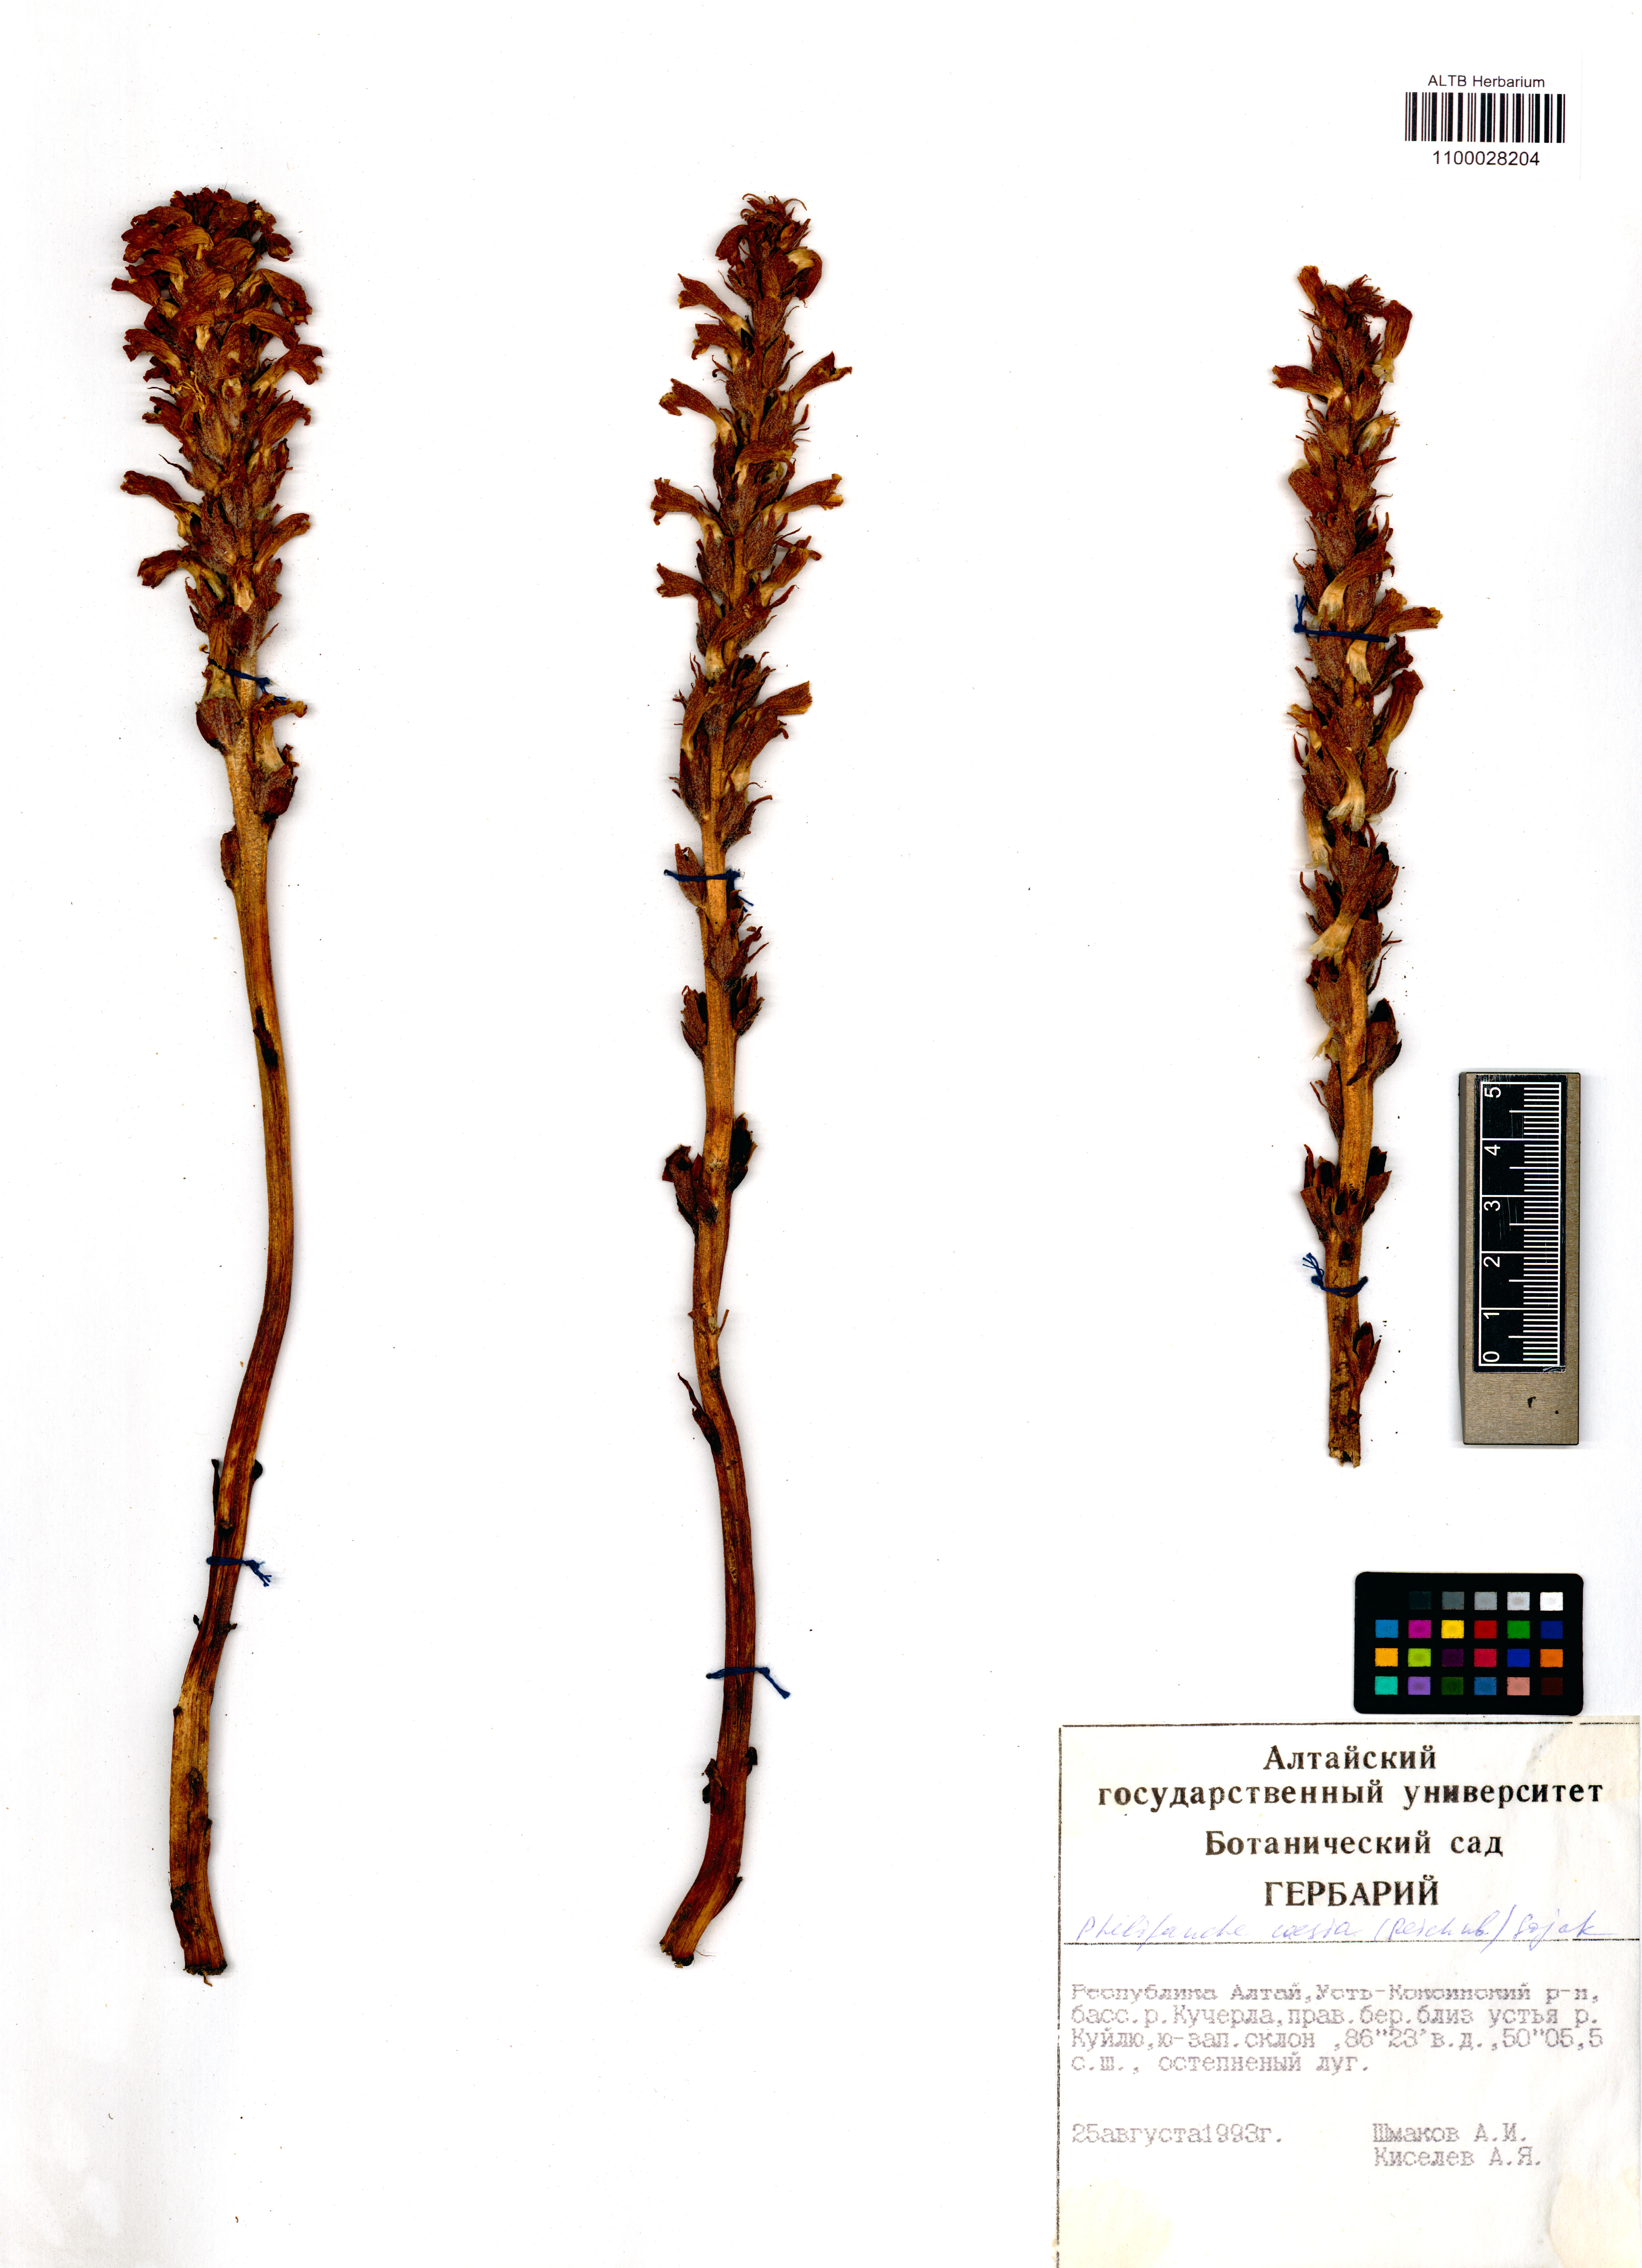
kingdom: Plantae
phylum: Tracheophyta
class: Magnoliopsida
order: Lamiales
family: Orobanchaceae
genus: Phelipanche
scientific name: Phelipanche caesia
